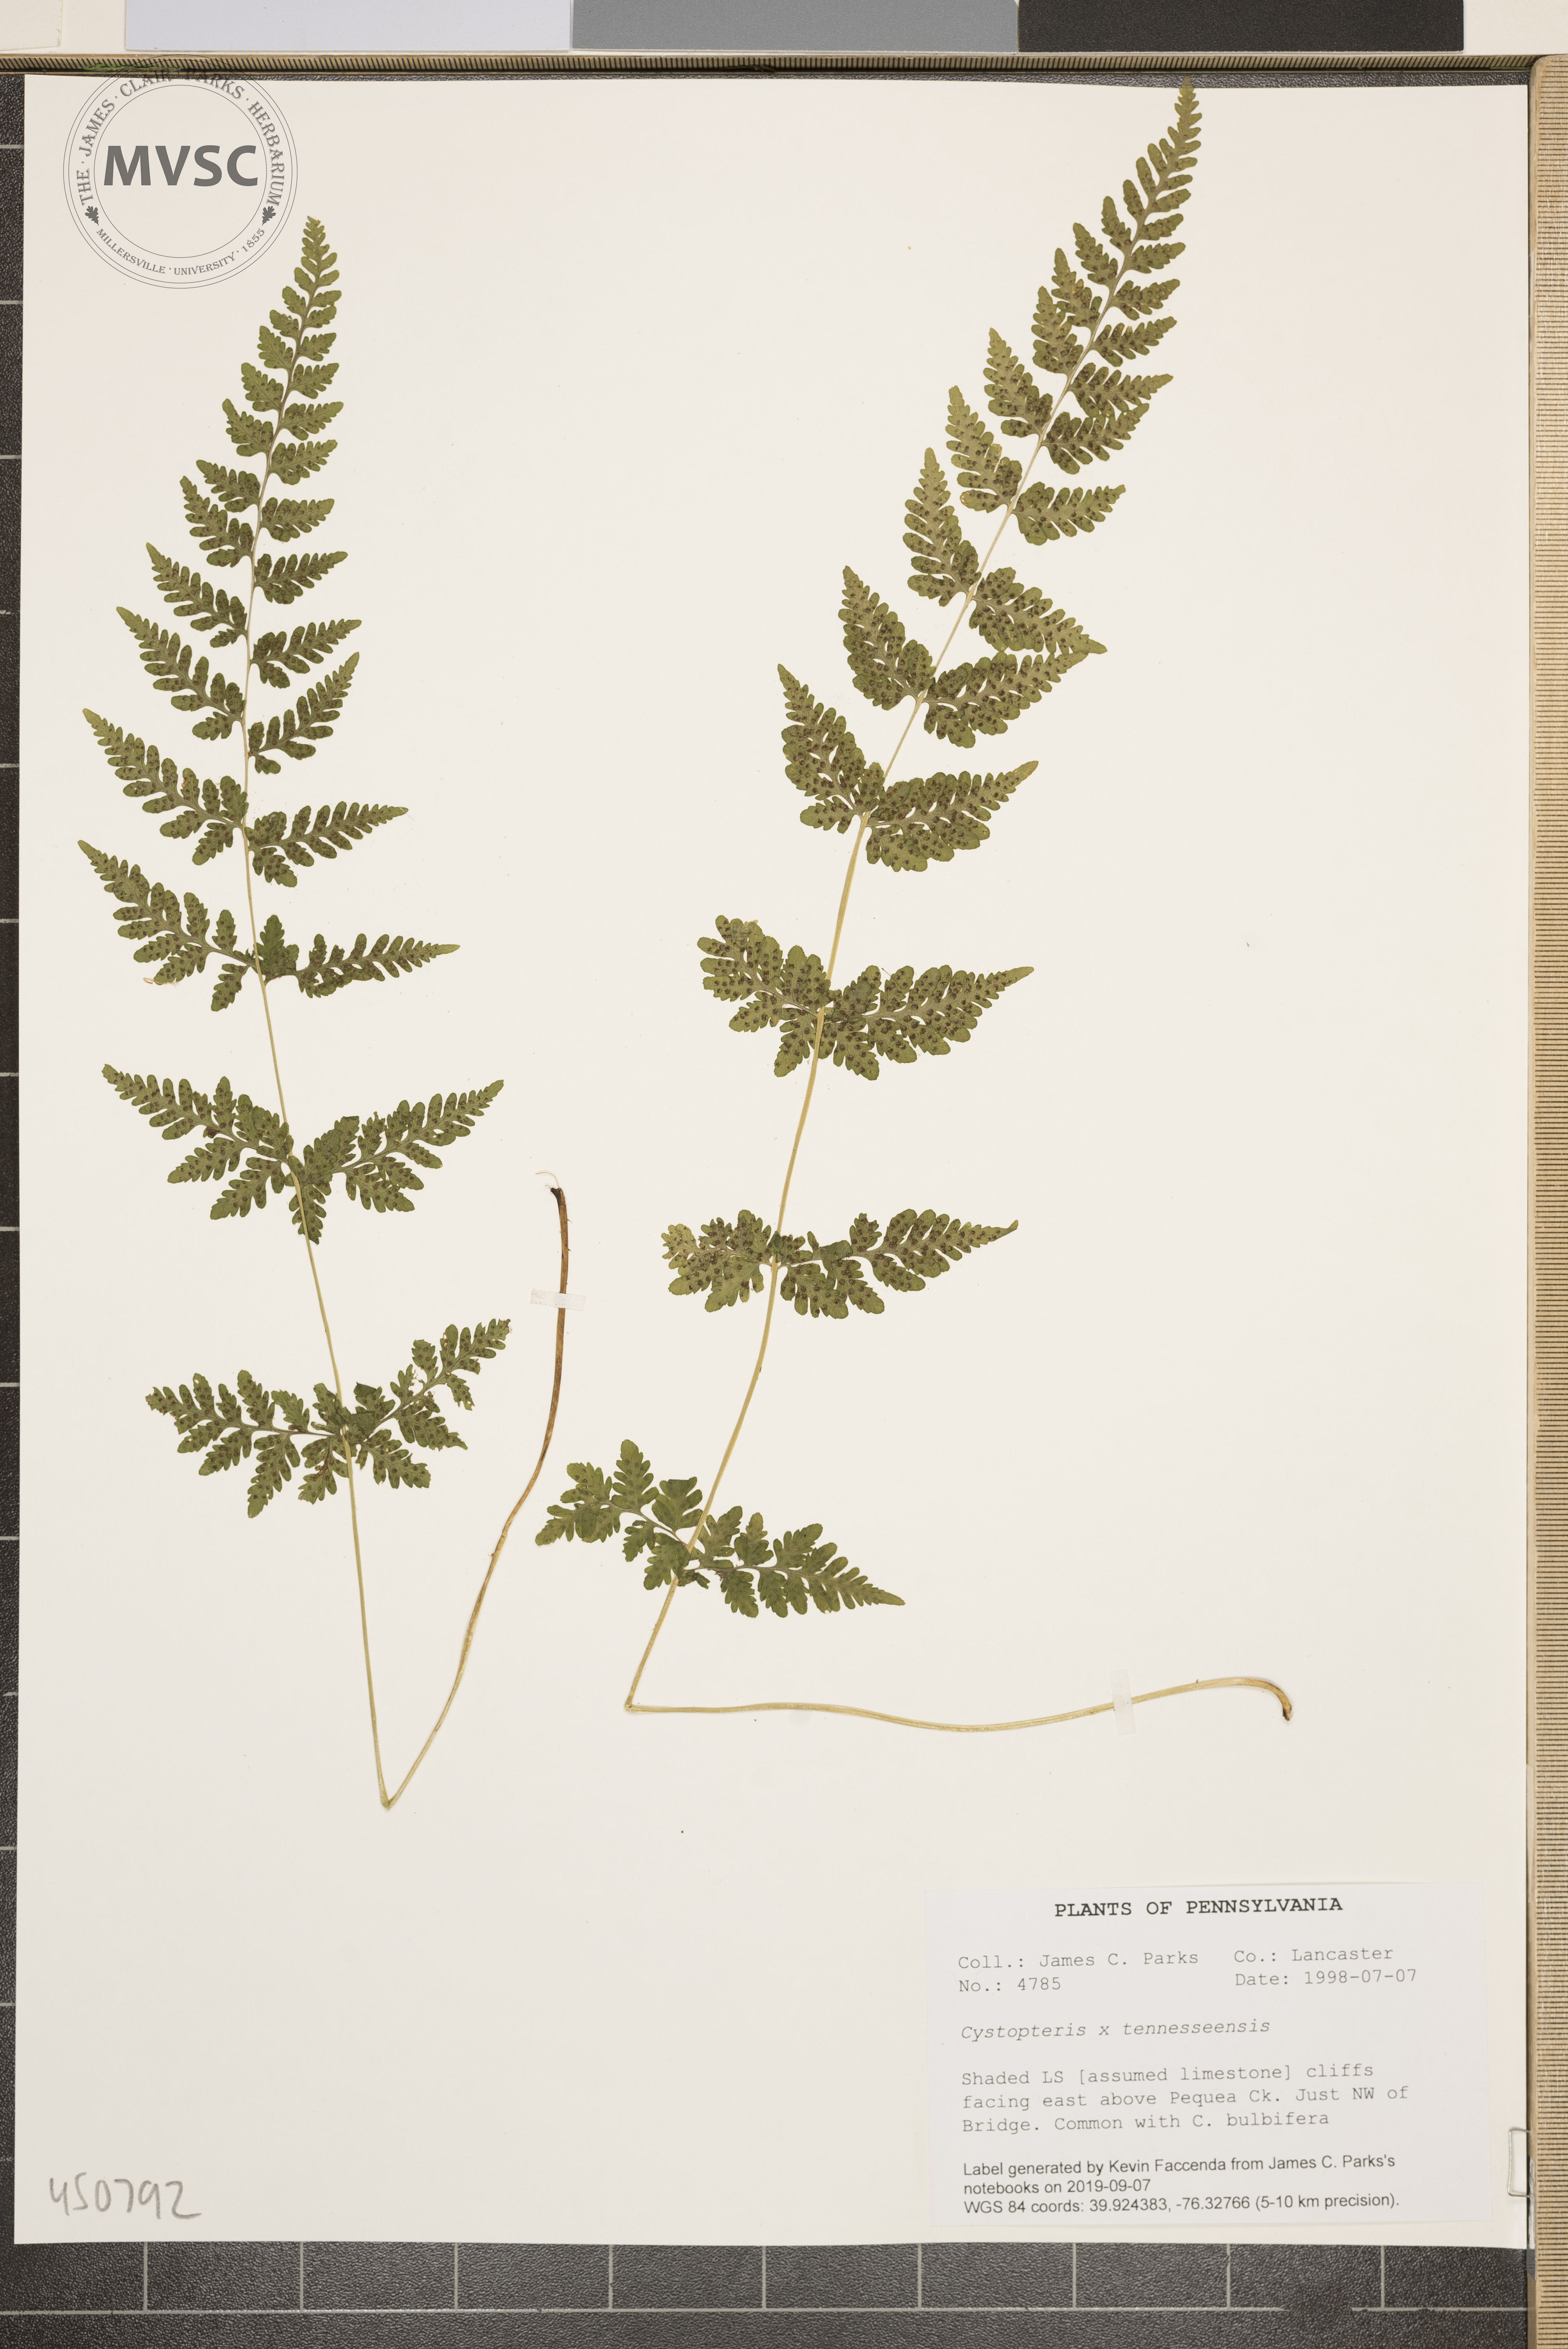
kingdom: Plantae
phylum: Tracheophyta
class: Polypodiopsida
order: Polypodiales
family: Cystopteridaceae
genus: Cystopteris
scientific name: Cystopteris tennesseensis
